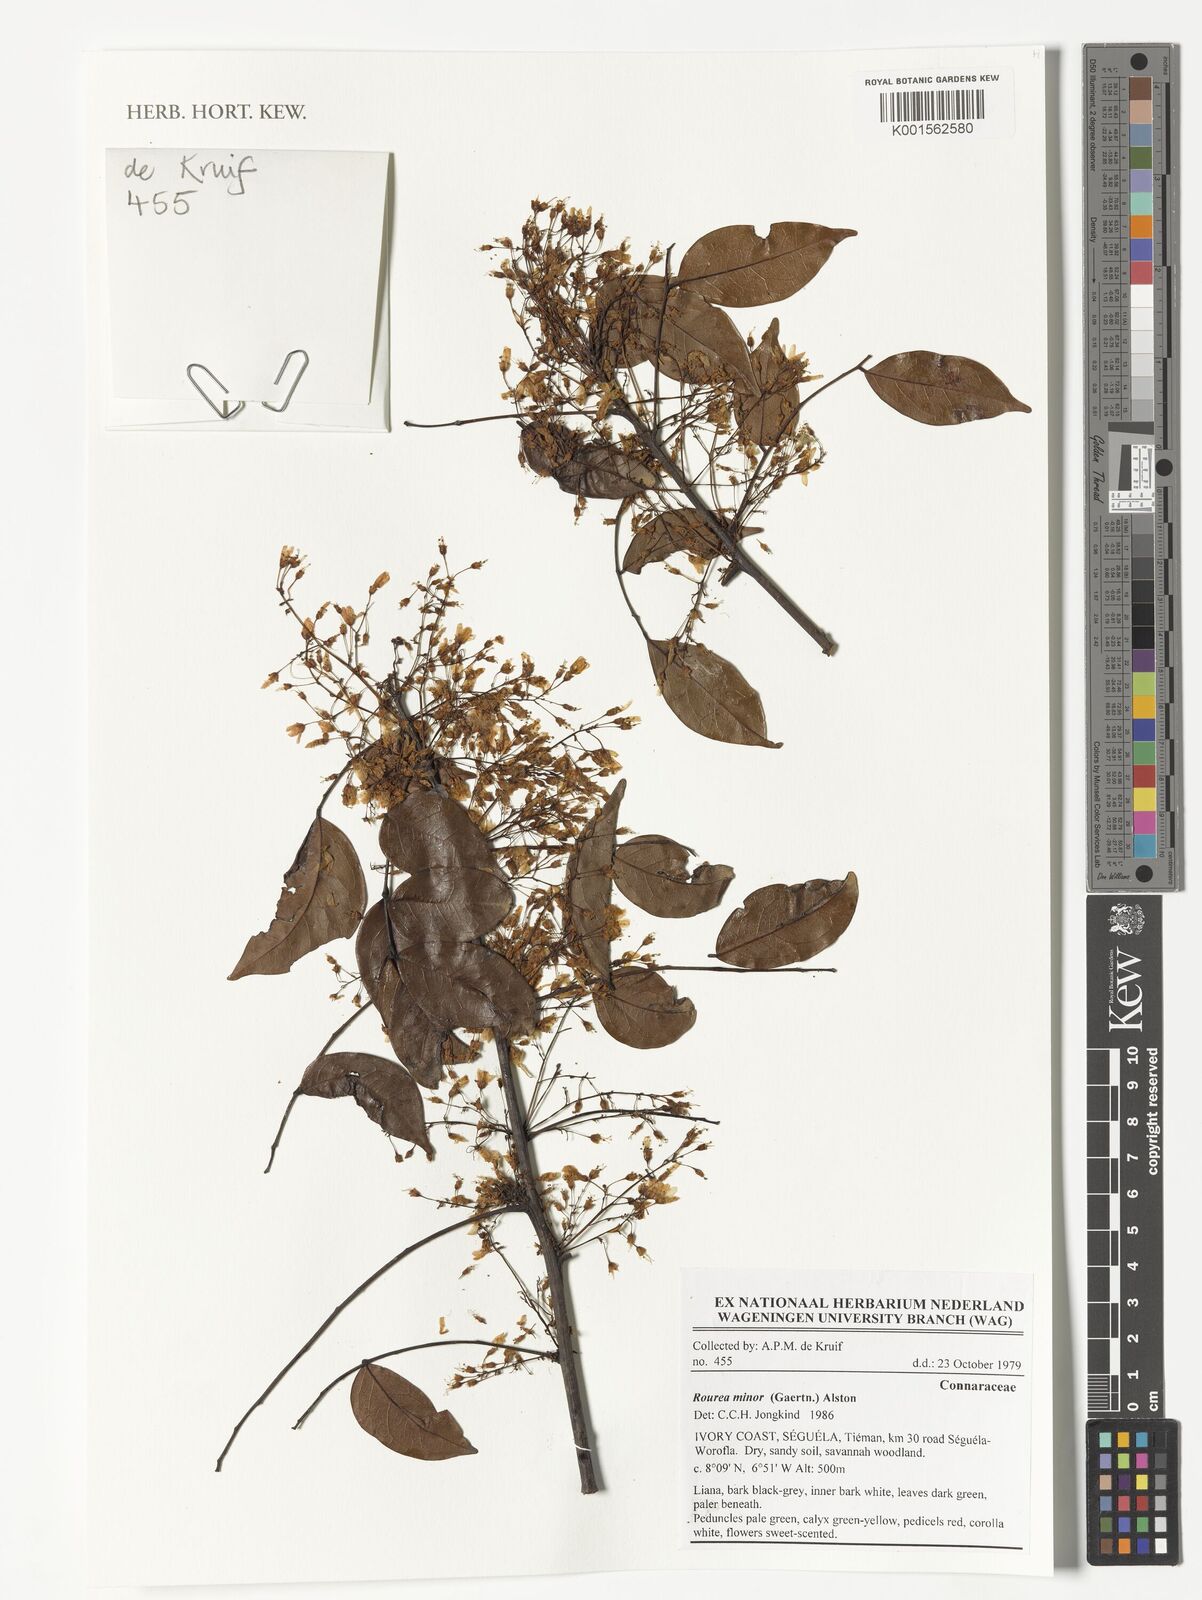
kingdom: Plantae
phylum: Tracheophyta
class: Magnoliopsida
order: Oxalidales
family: Connaraceae
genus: Rourea
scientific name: Rourea minor
